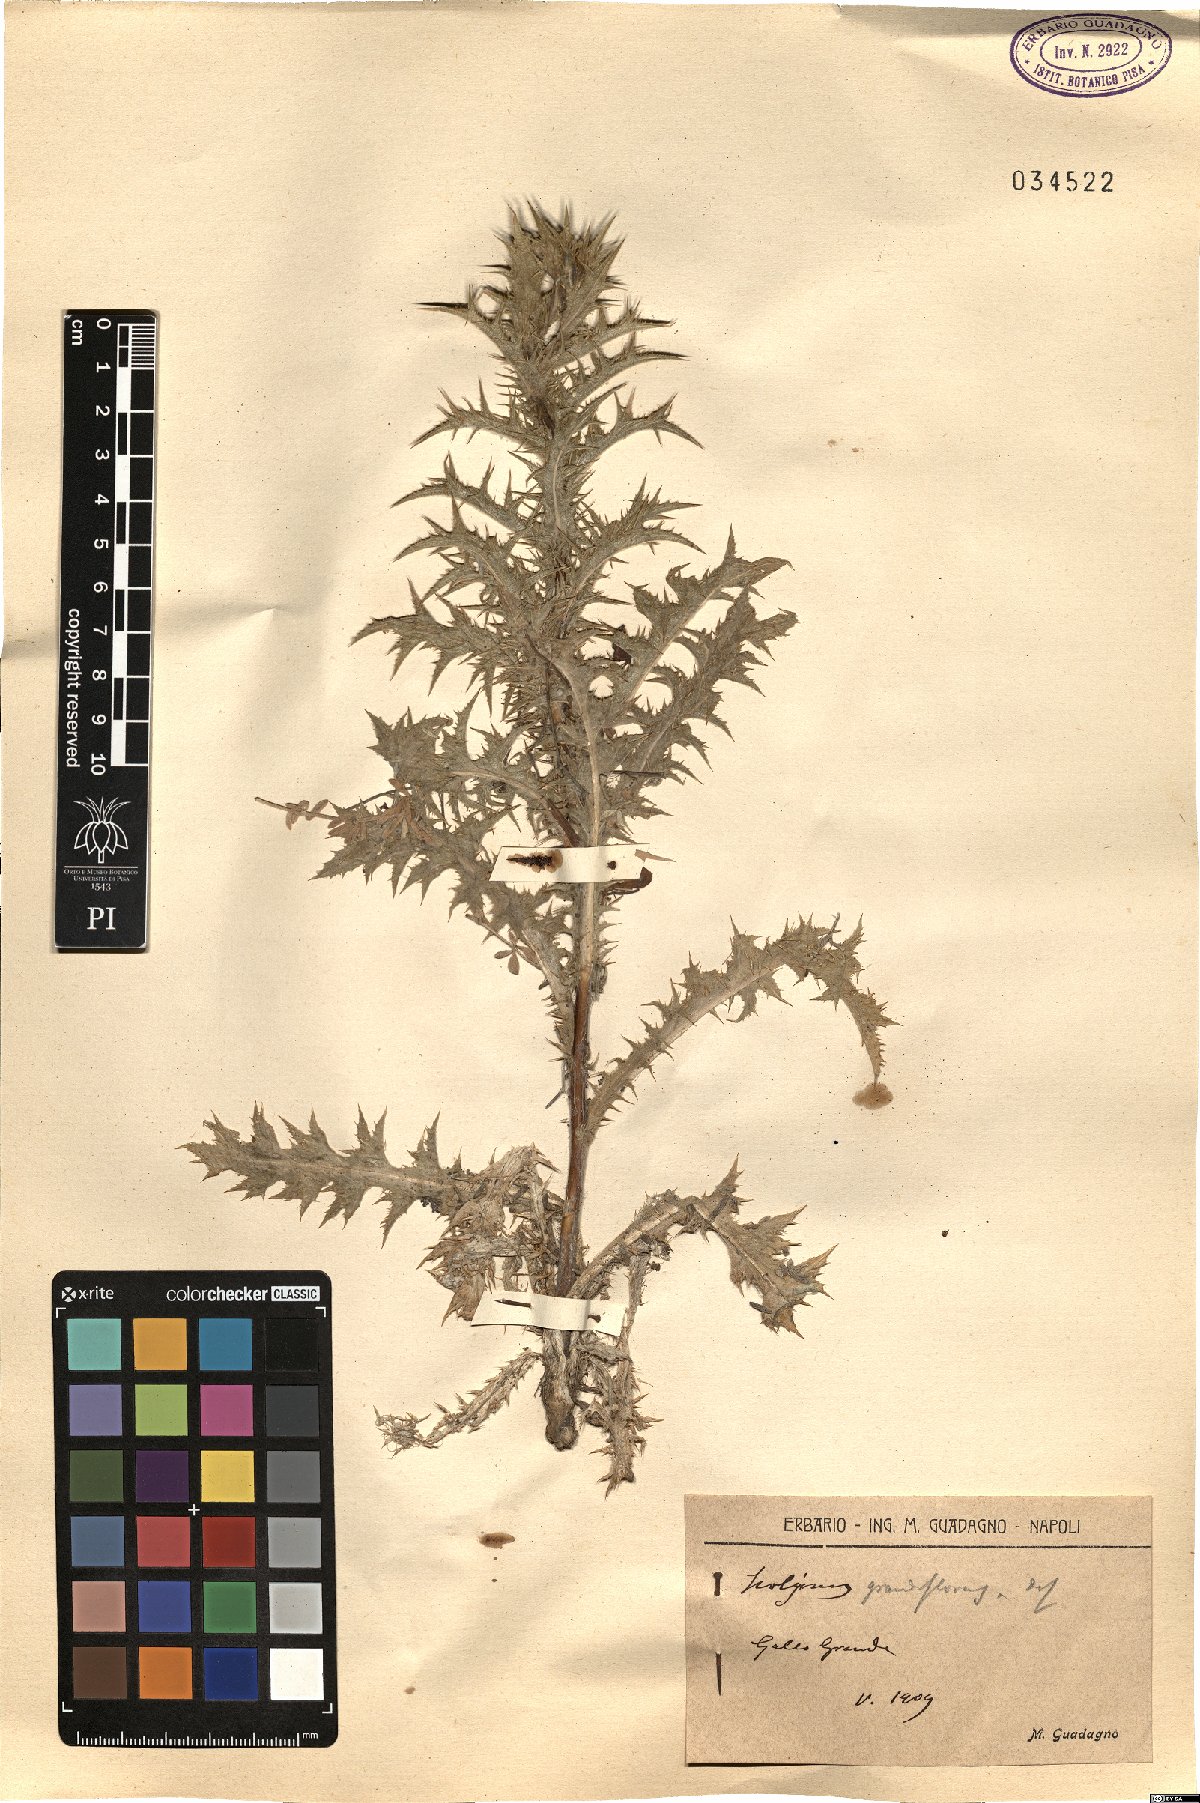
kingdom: Plantae
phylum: Tracheophyta
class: Magnoliopsida
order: Asterales
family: Asteraceae
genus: Scolymus
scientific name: Scolymus grandiflorus
